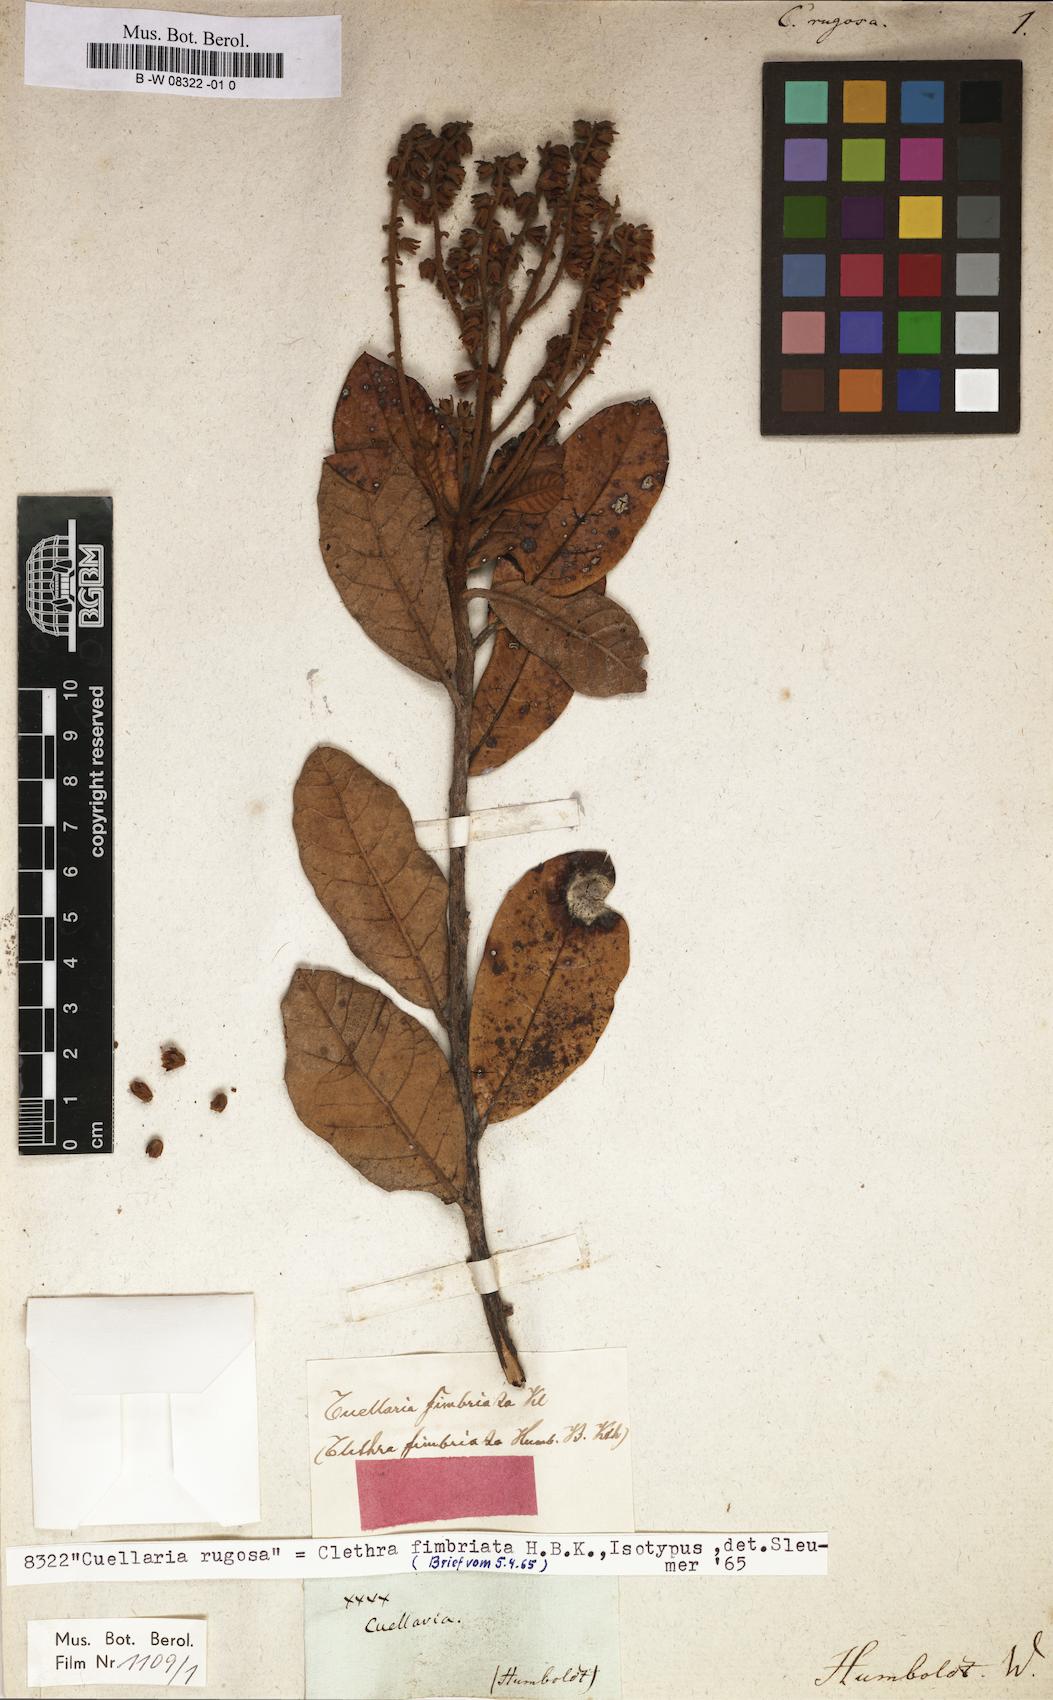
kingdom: Plantae
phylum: Tracheophyta
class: Magnoliopsida
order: Ericales
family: Clethraceae
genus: Clethra
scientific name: Clethra
